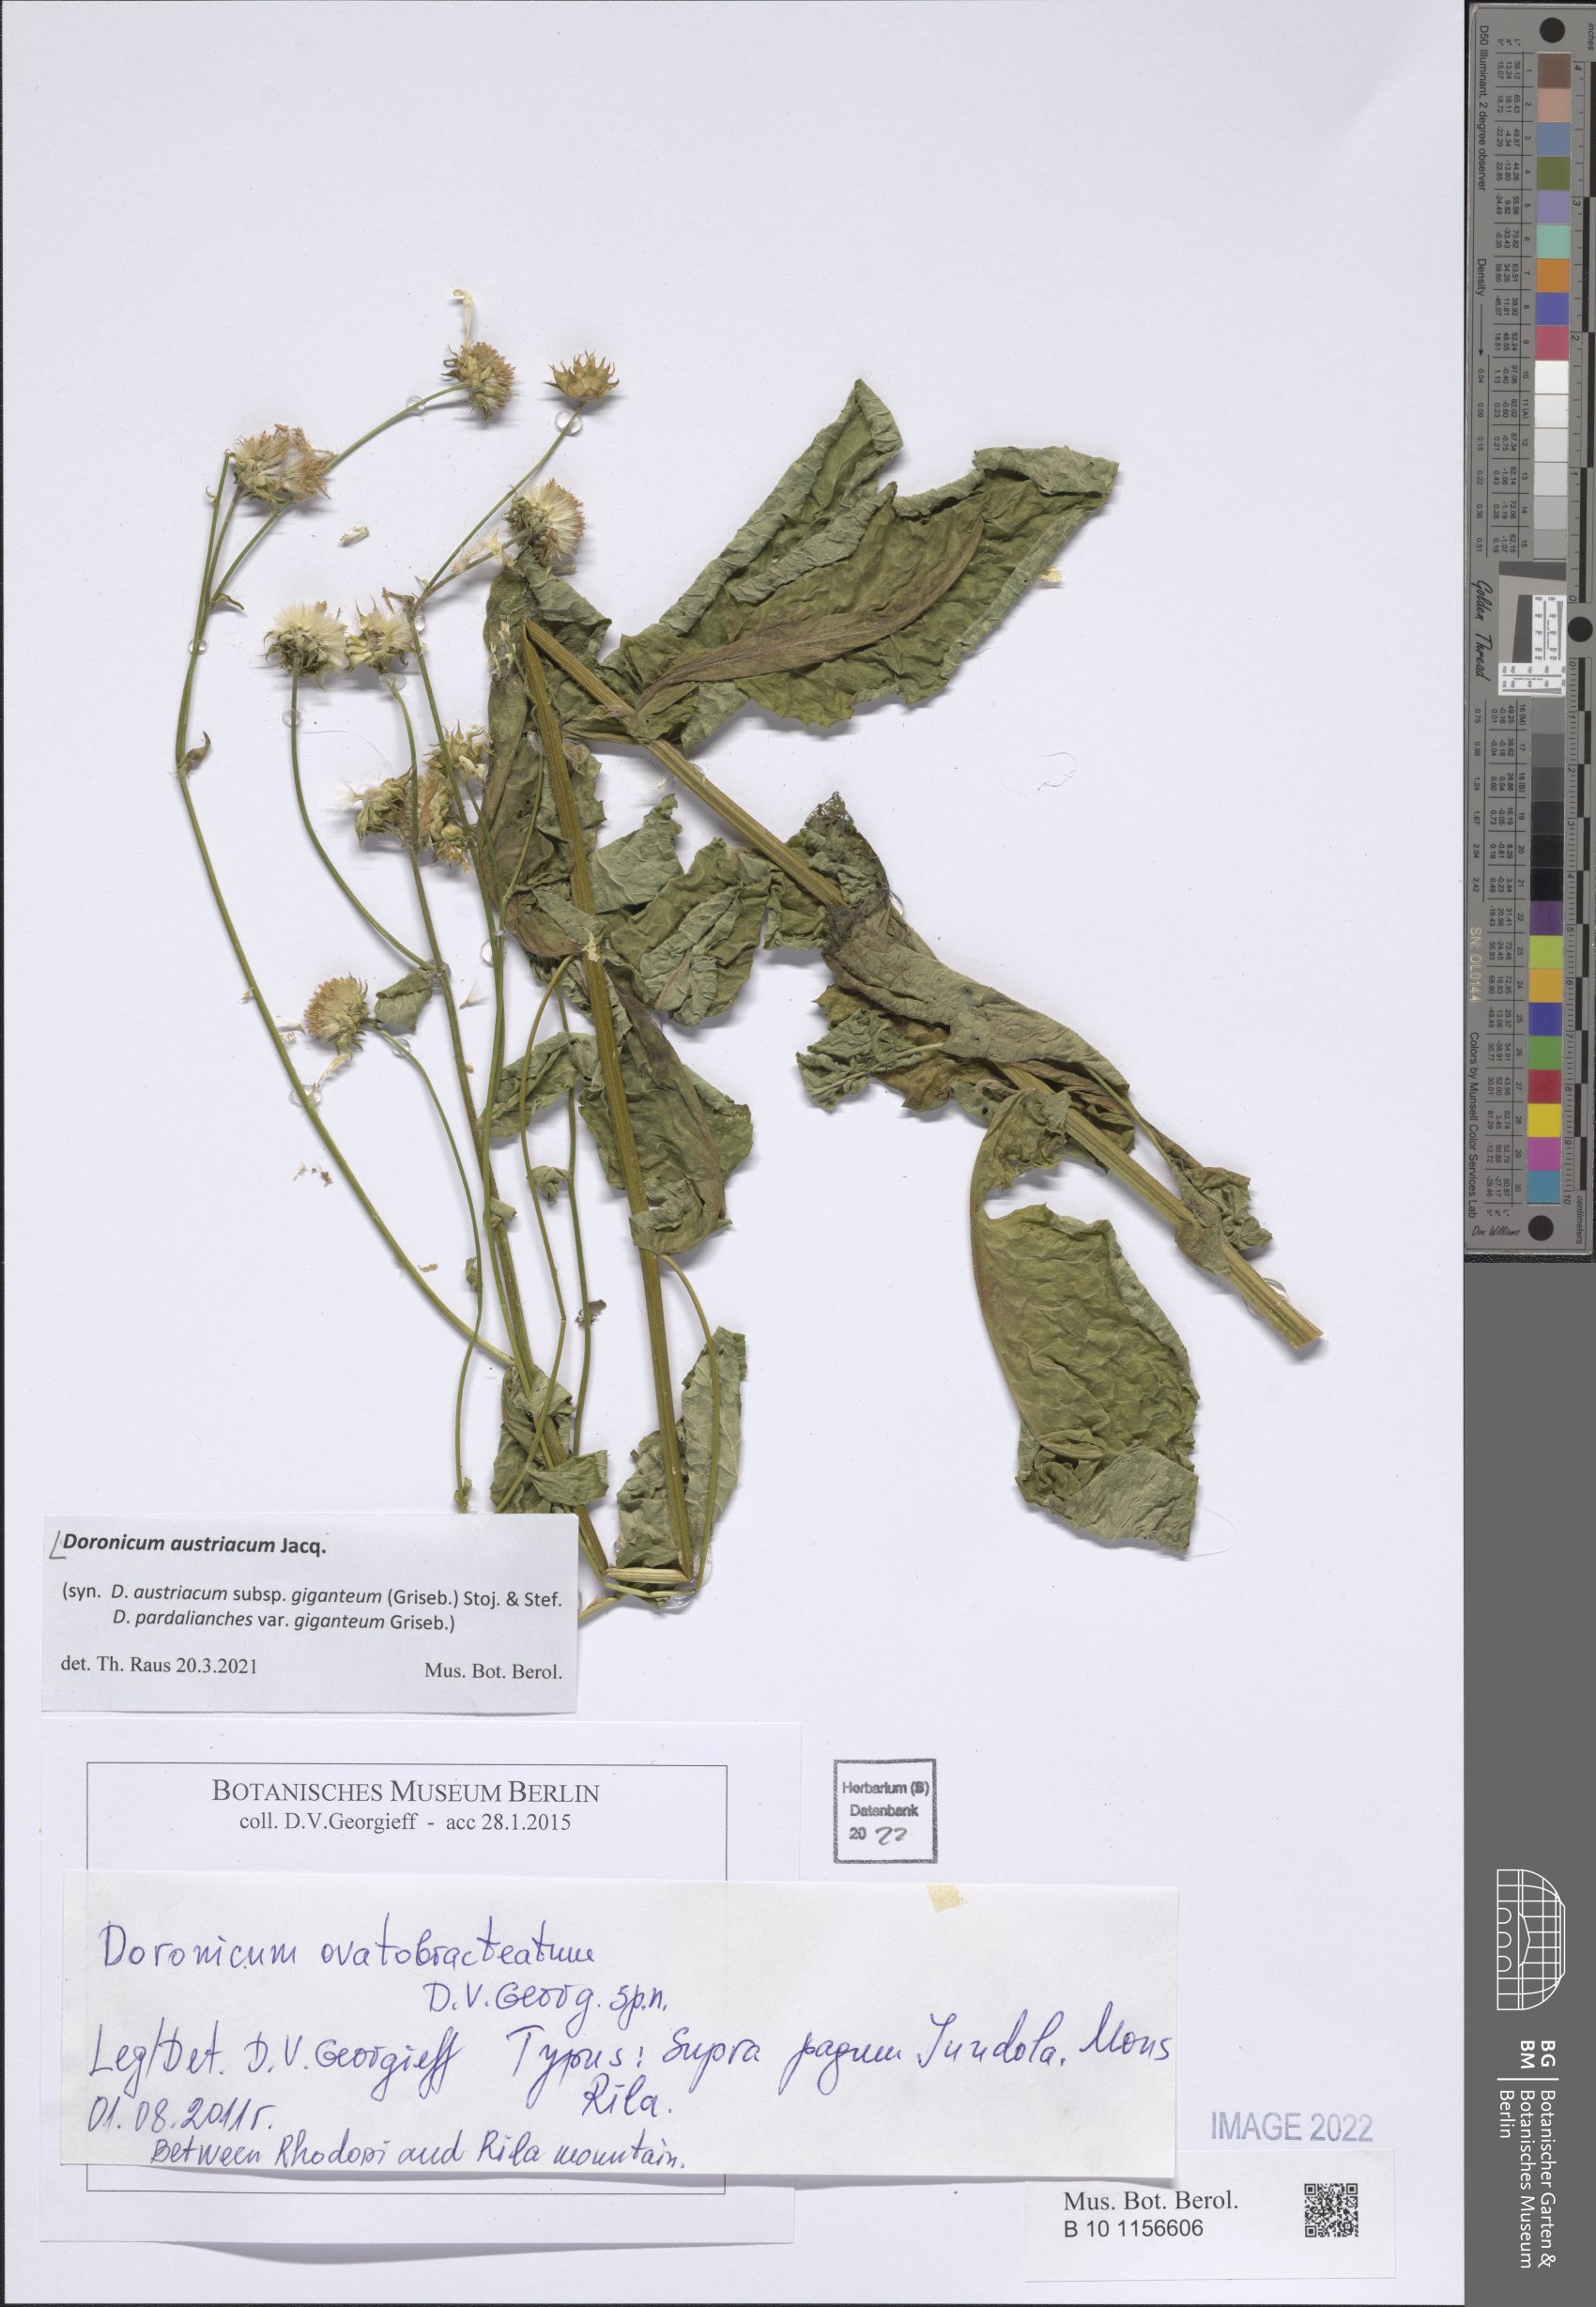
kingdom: Plantae
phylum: Tracheophyta
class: Magnoliopsida
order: Asterales
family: Asteraceae
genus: Doronicum
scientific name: Doronicum austriacum
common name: Austrian leopard's-bane
